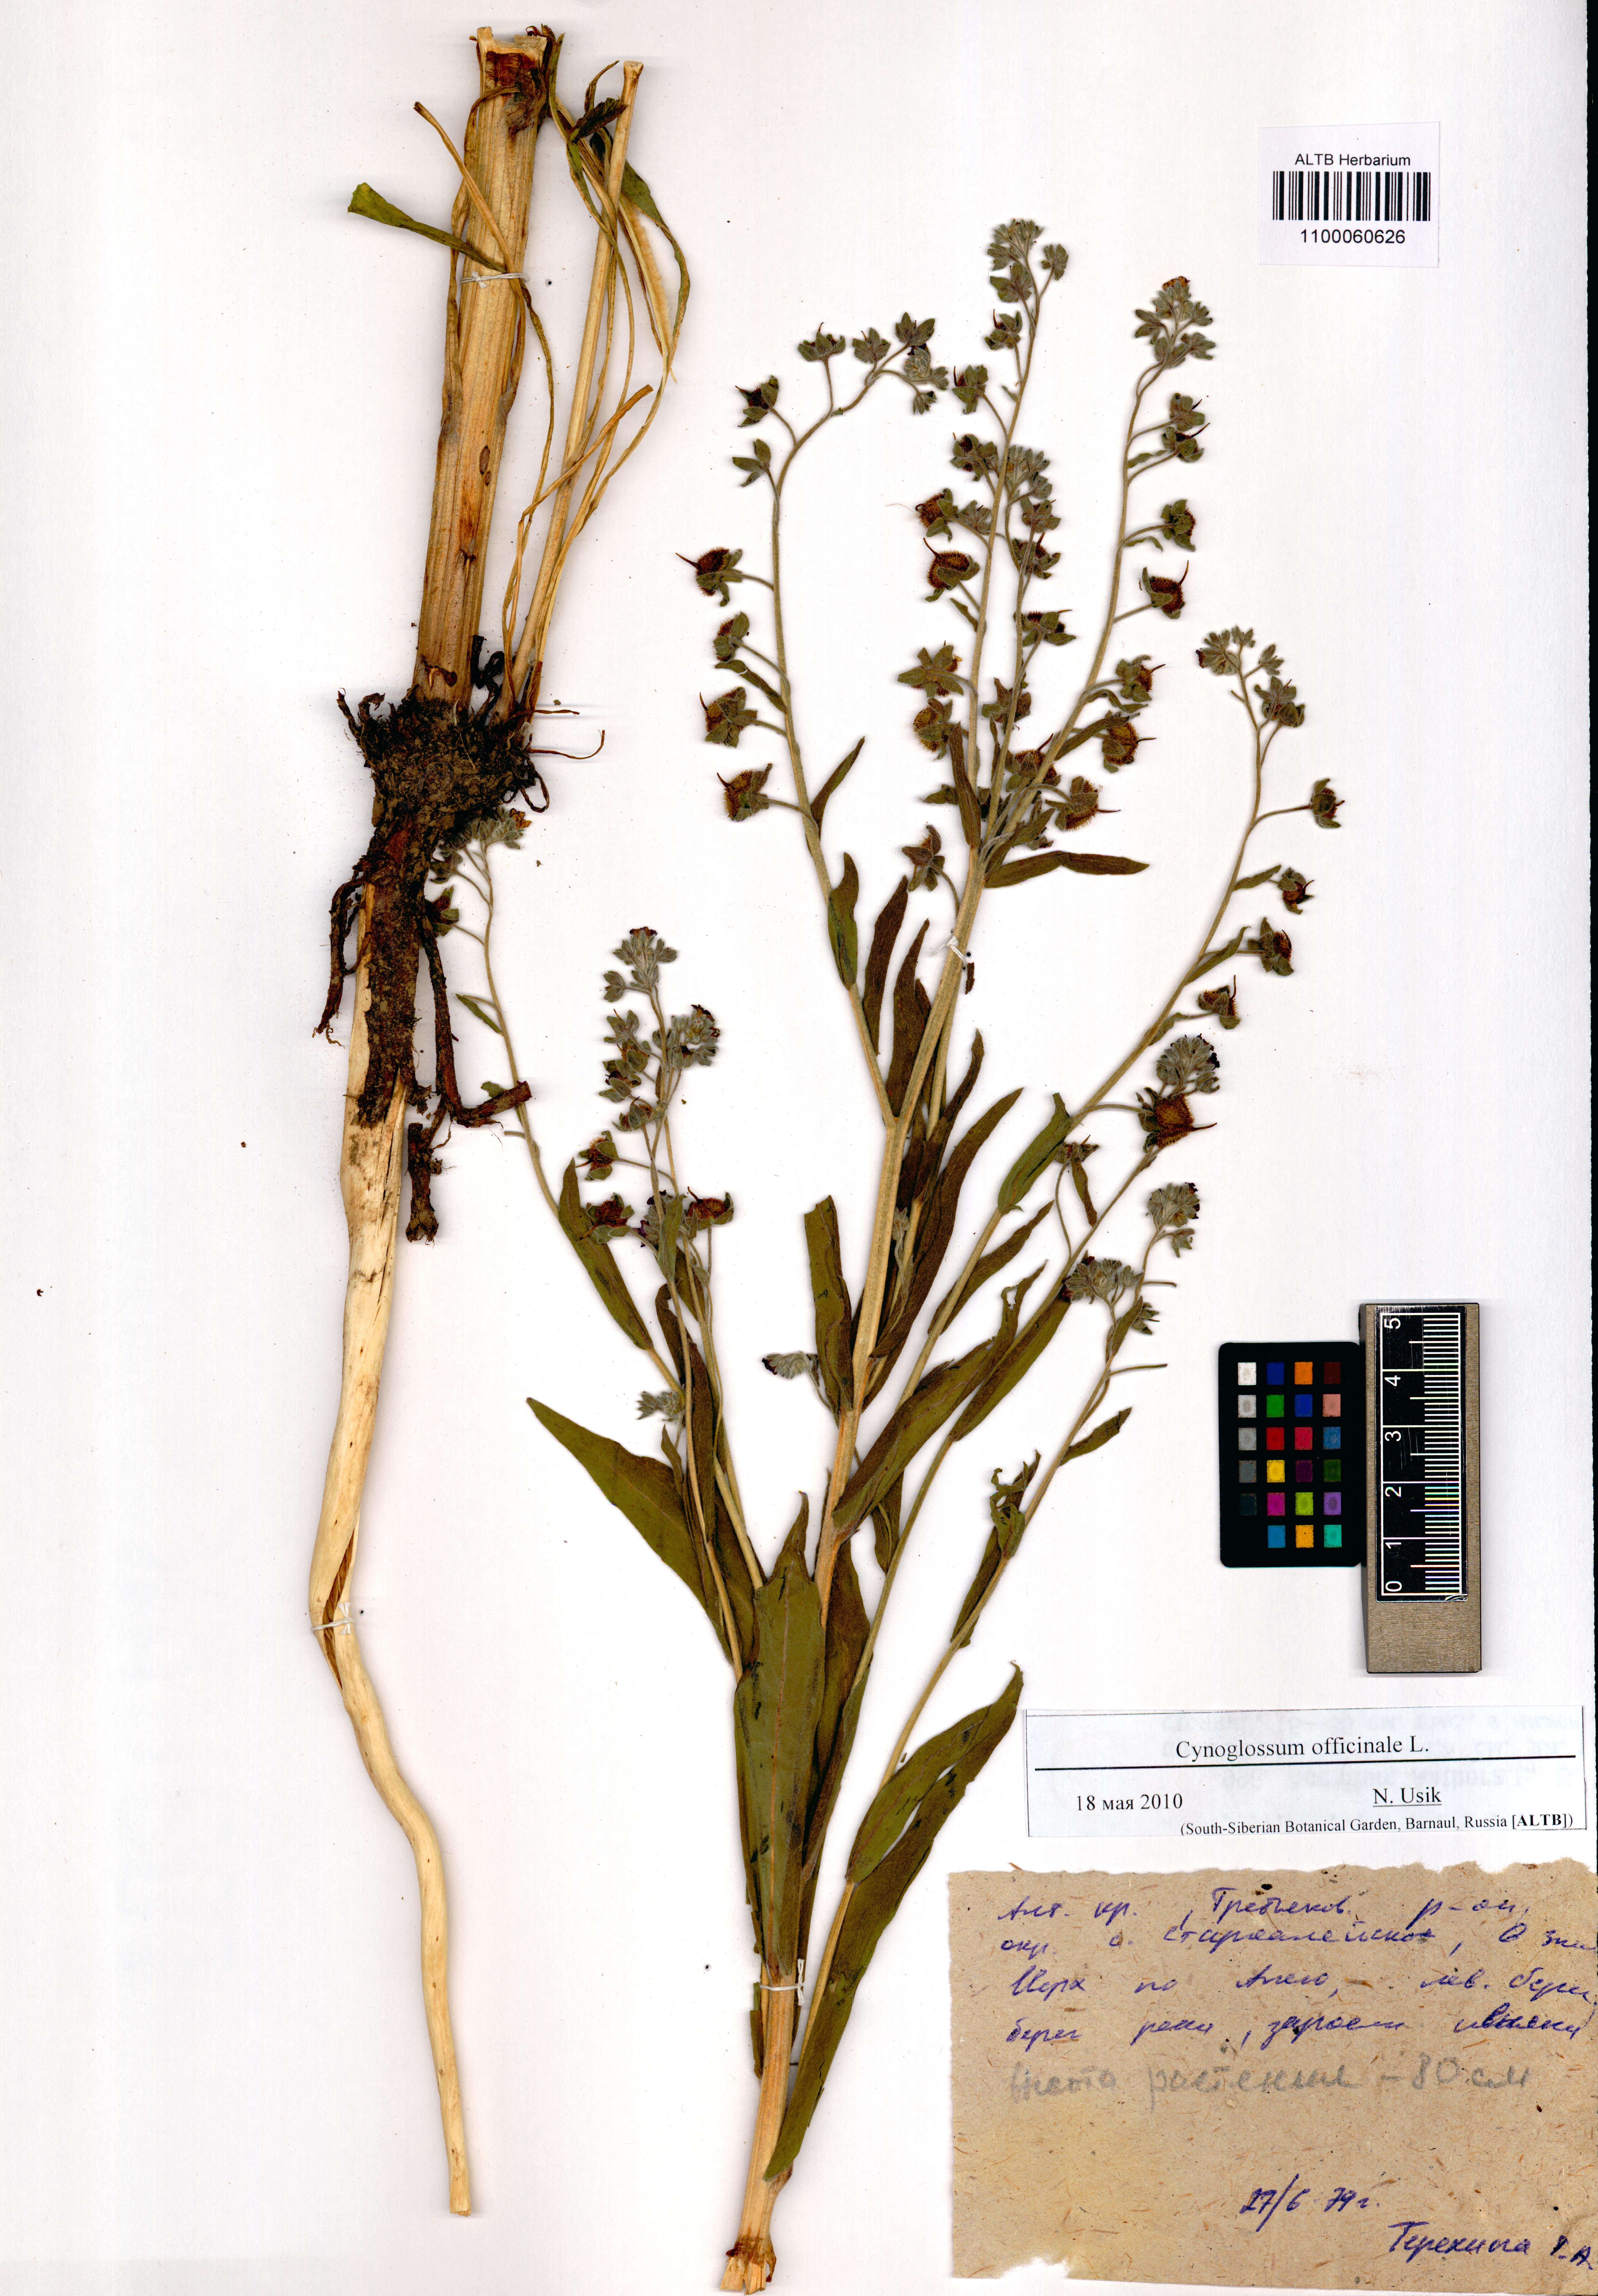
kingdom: Plantae
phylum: Tracheophyta
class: Magnoliopsida
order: Boraginales
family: Boraginaceae
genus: Cynoglossum
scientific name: Cynoglossum officinale
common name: Hound's-tongue
